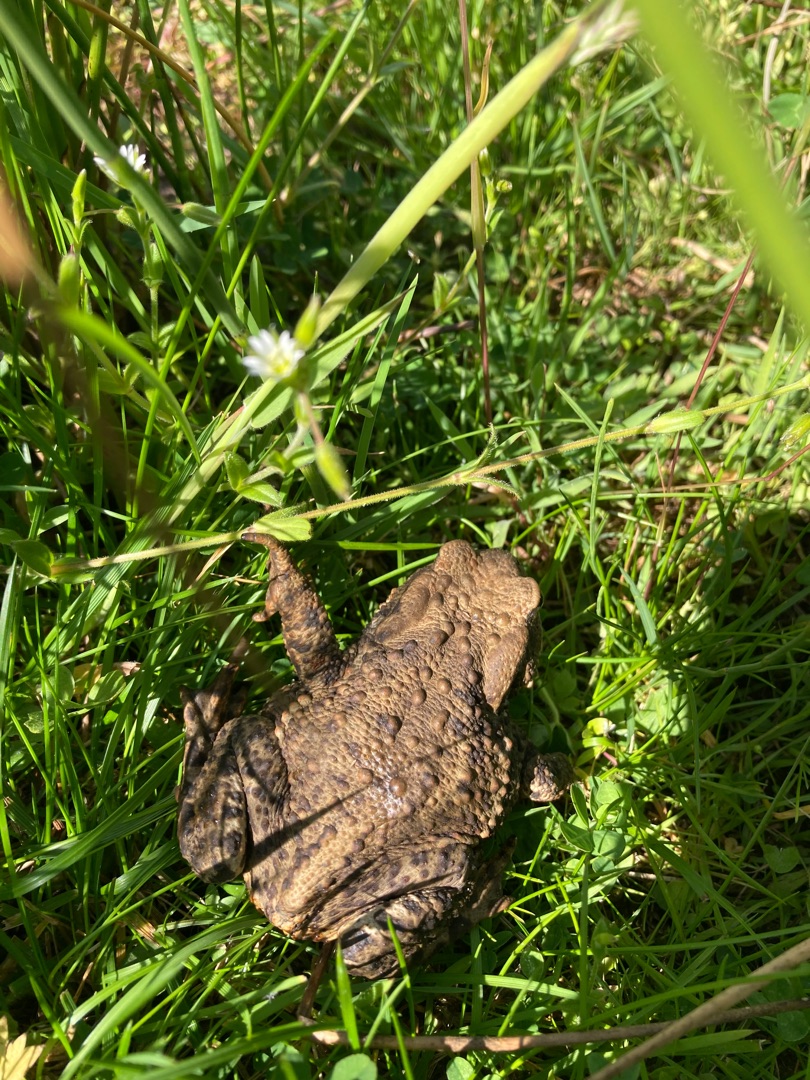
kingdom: Animalia
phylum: Chordata
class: Amphibia
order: Anura
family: Bufonidae
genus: Bufo
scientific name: Bufo bufo
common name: Skrubtudse
